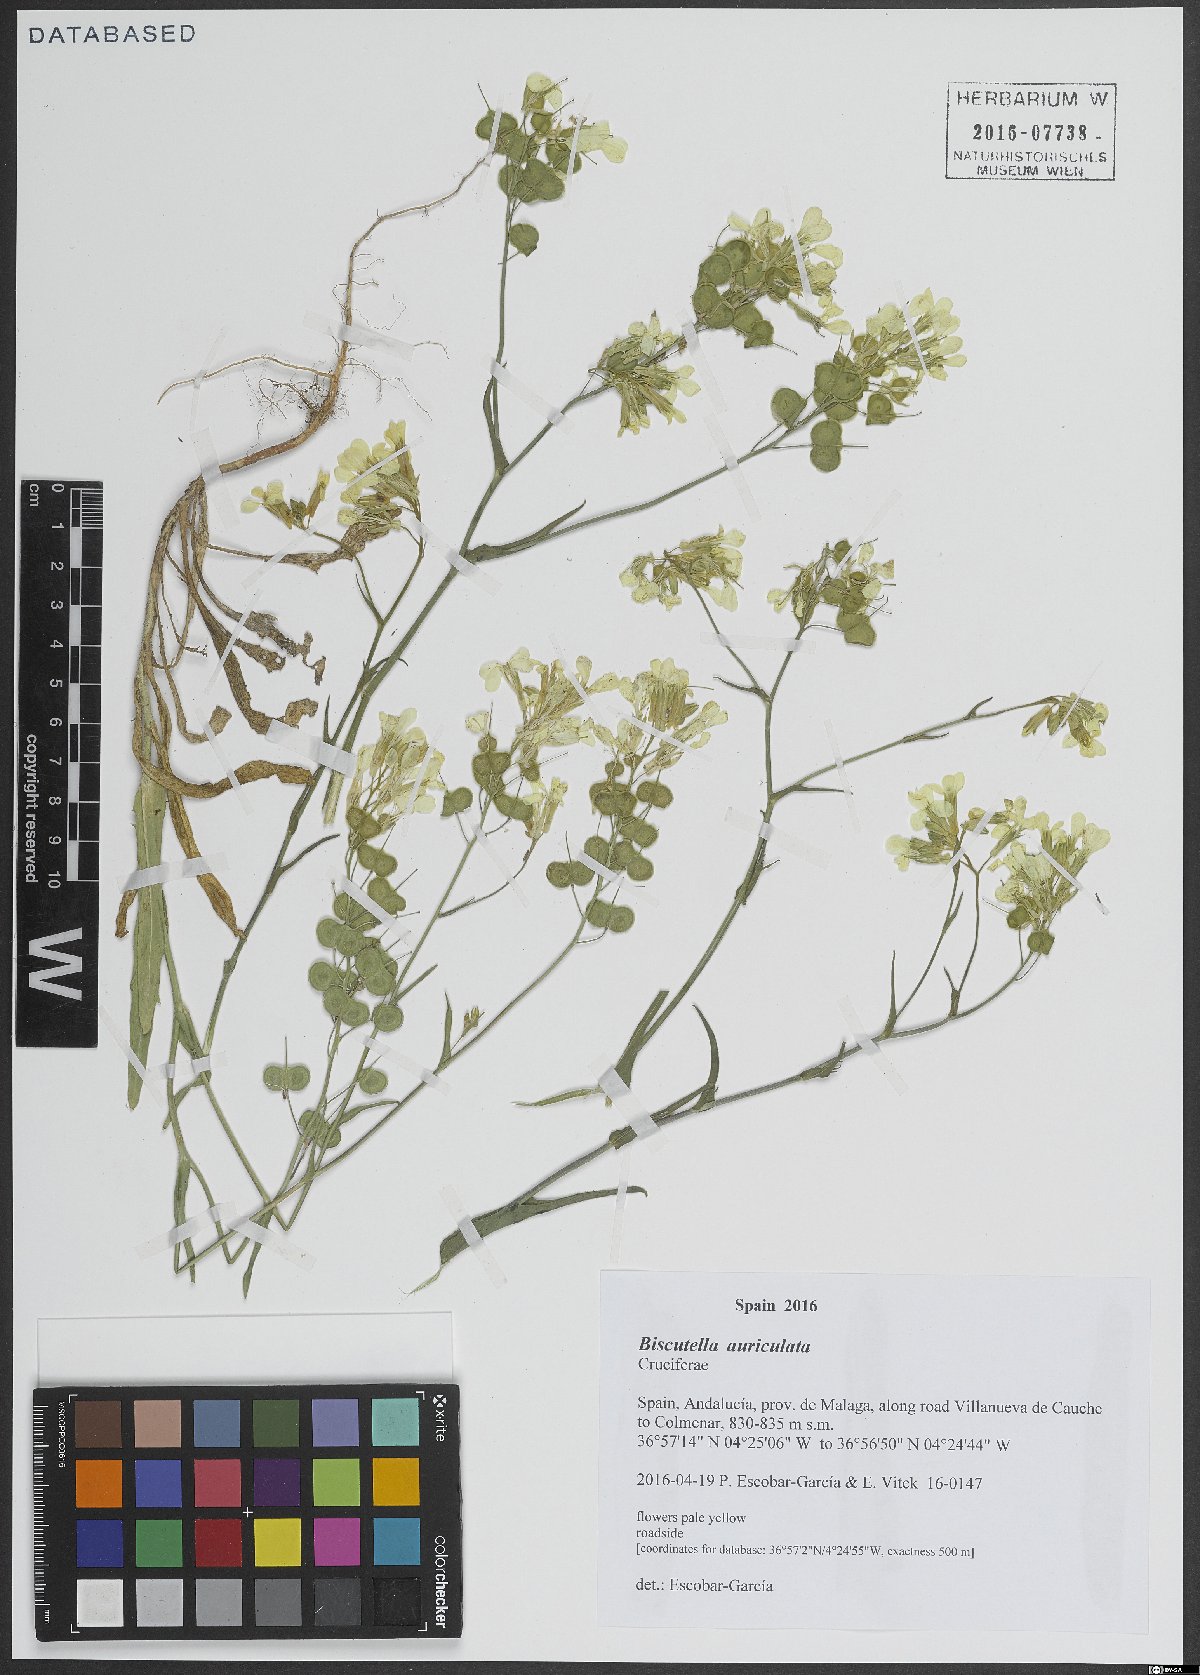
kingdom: Plantae
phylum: Tracheophyta
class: Magnoliopsida
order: Brassicales
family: Brassicaceae
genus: Biscutella
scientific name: Biscutella auriculata
